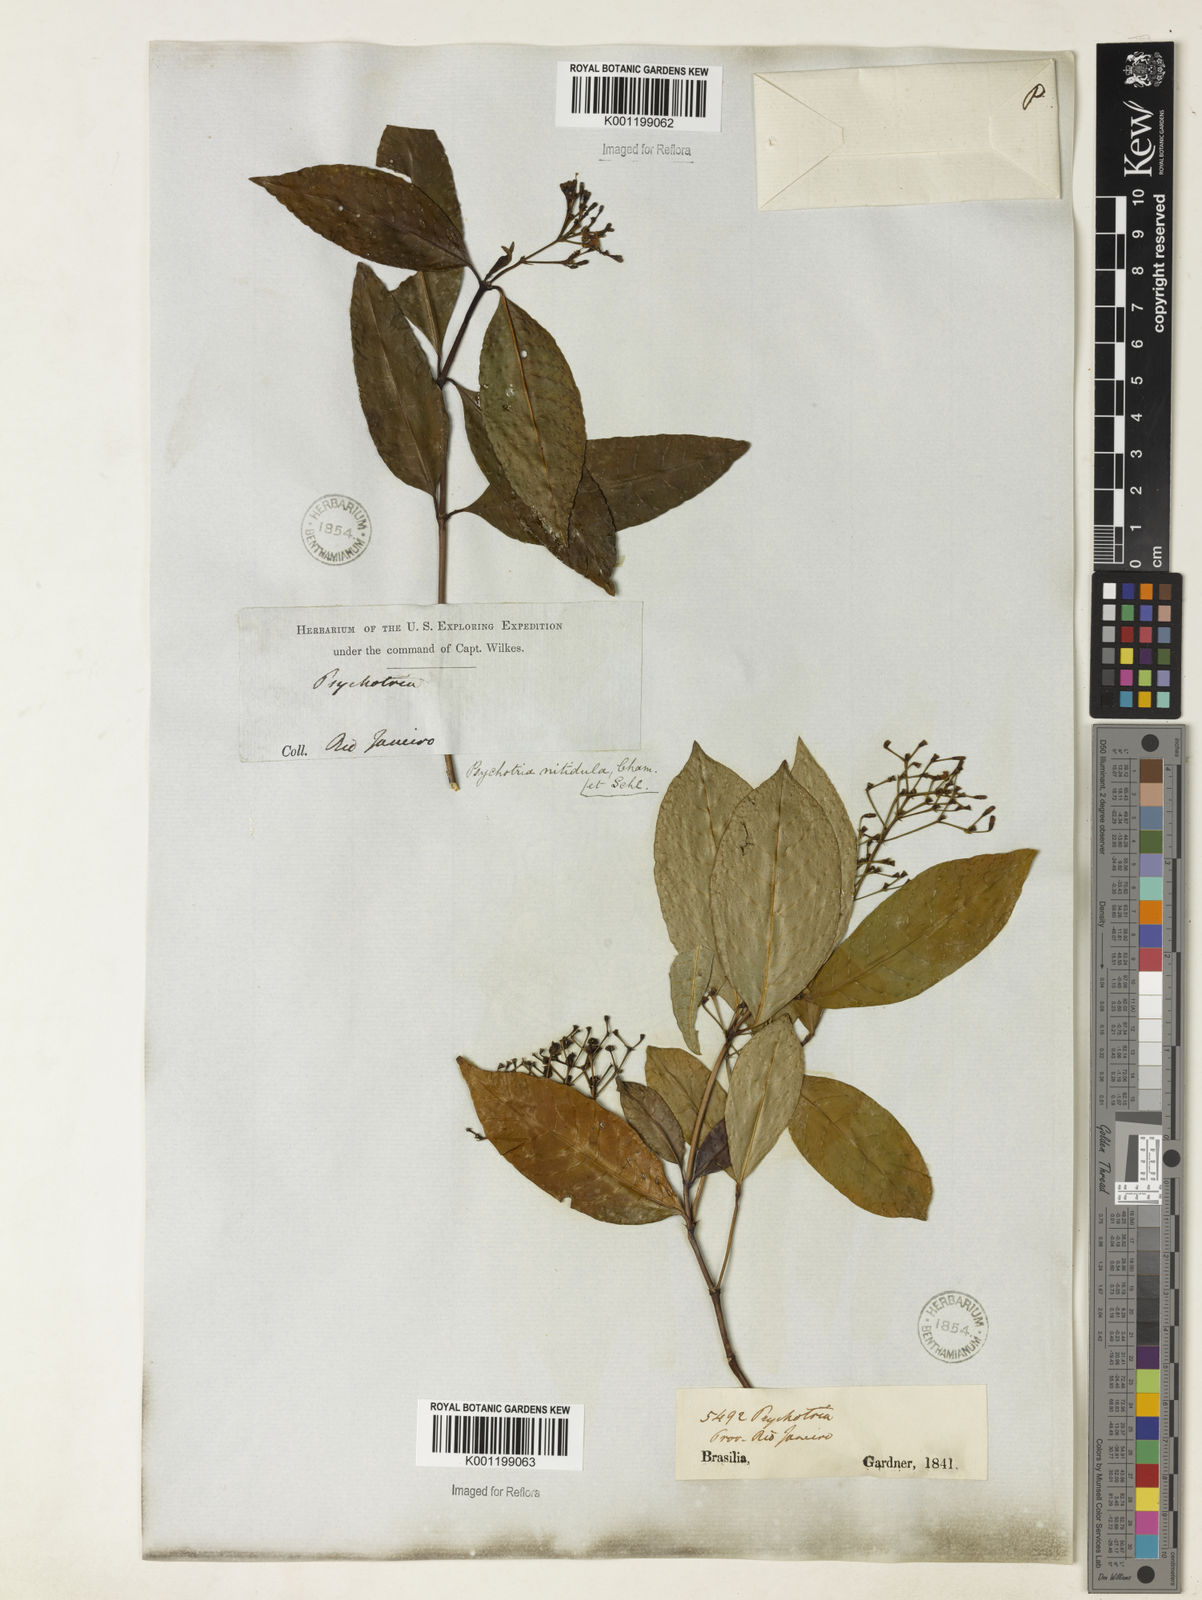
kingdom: Plantae
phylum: Tracheophyta
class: Magnoliopsida
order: Gentianales
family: Rubiaceae
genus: Psychotria
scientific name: Psychotria leiocarpa
